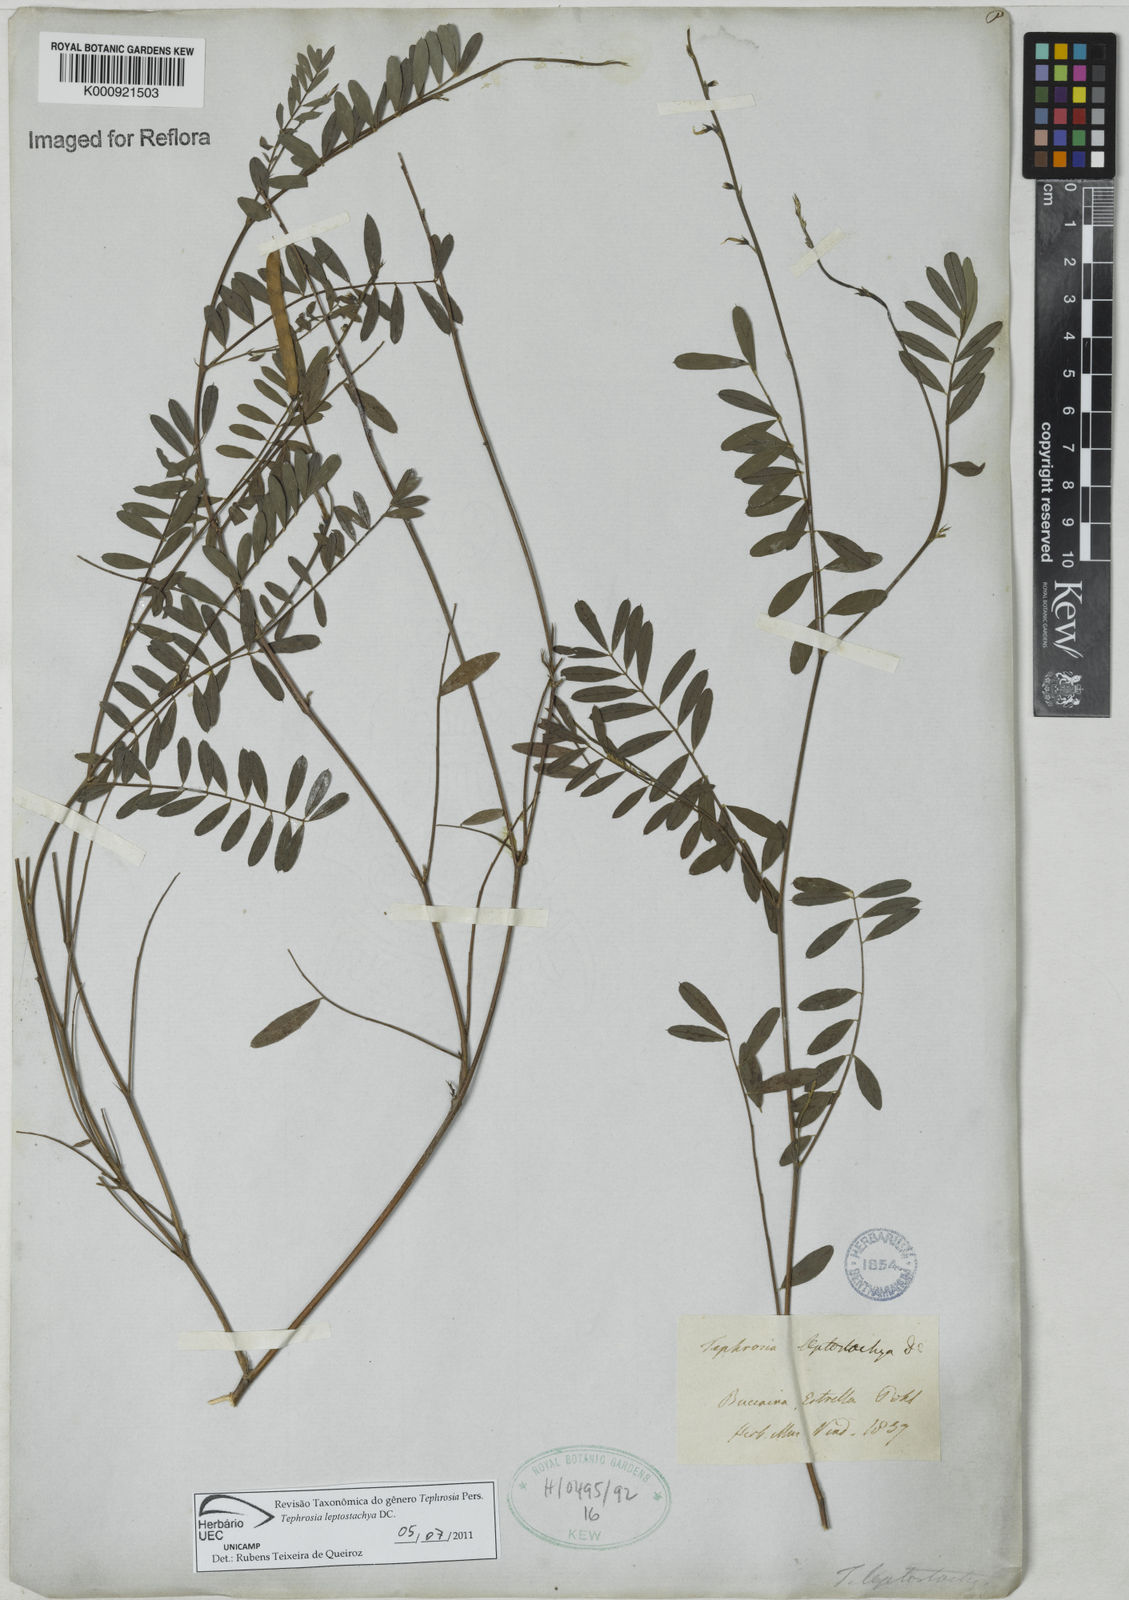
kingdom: Plantae
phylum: Tracheophyta
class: Magnoliopsida
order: Fabales
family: Fabaceae
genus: Tephrosia
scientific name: Tephrosia purpurea
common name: Fishpoison
